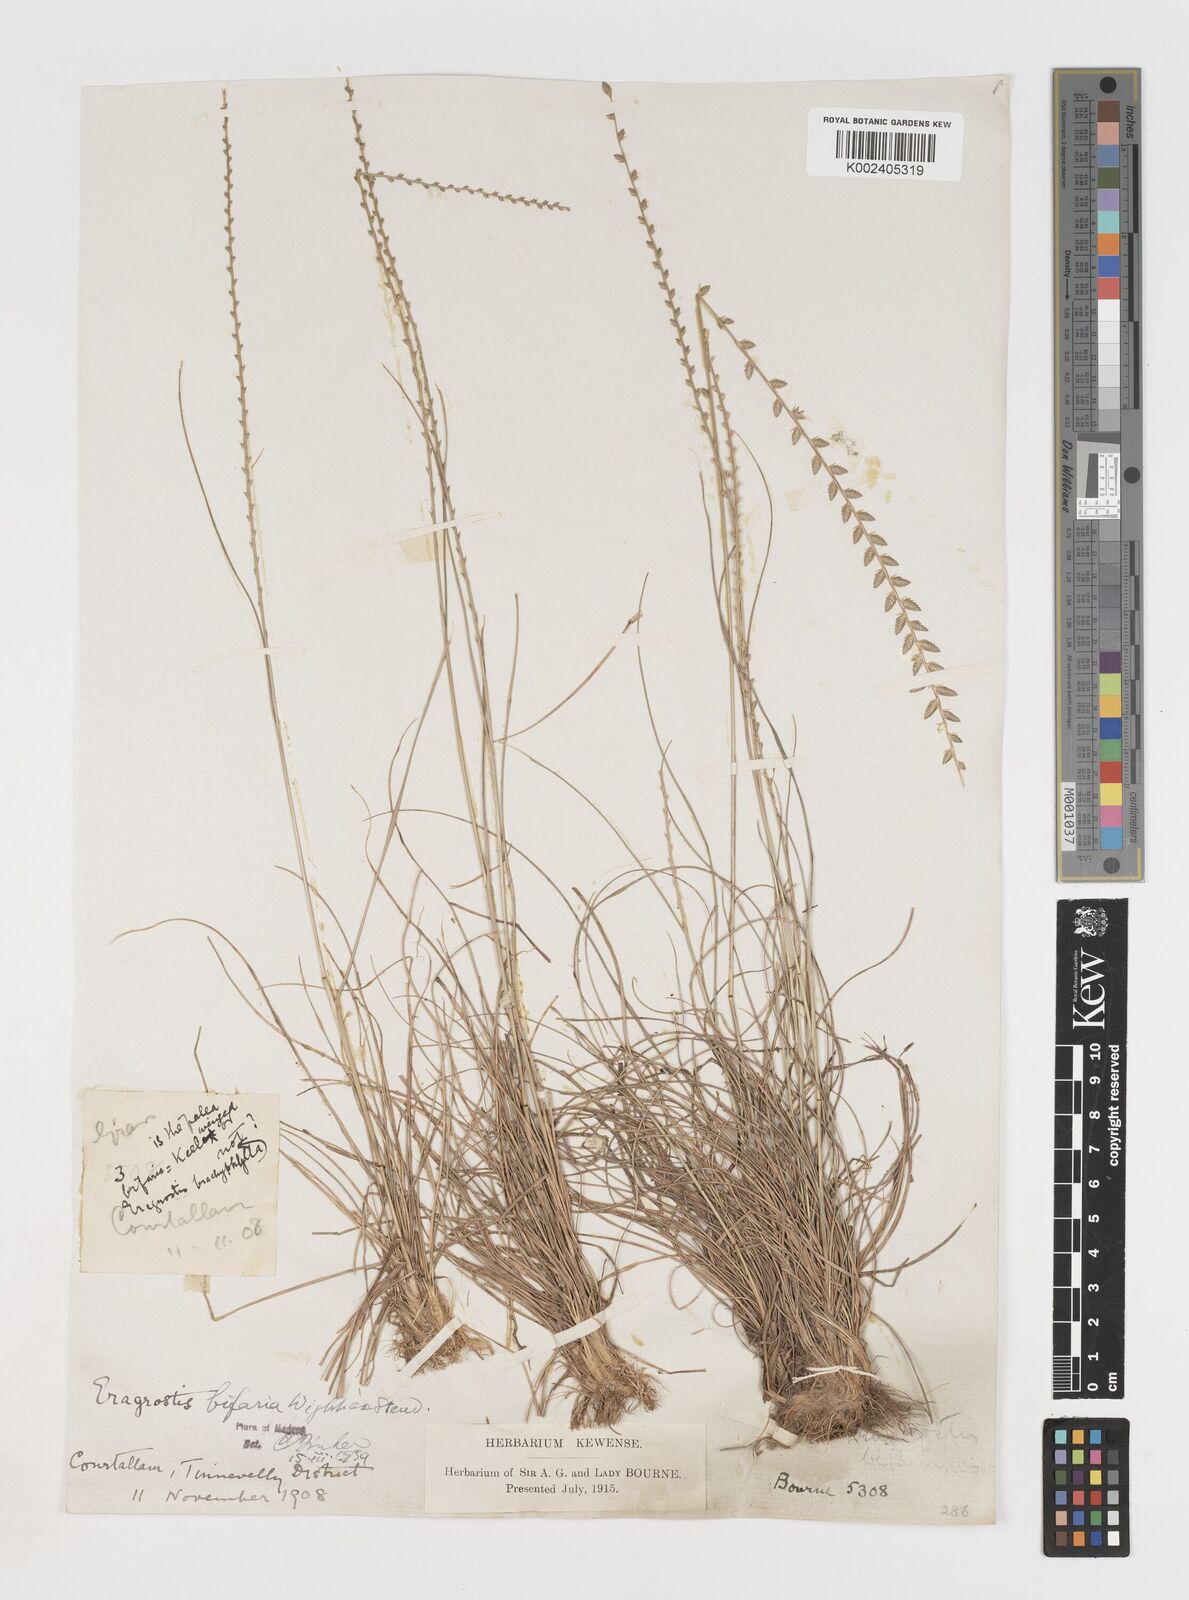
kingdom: Plantae
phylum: Tracheophyta
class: Liliopsida
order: Poales
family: Poaceae
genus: Eragrostiella
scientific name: Eragrostiella bifaria
